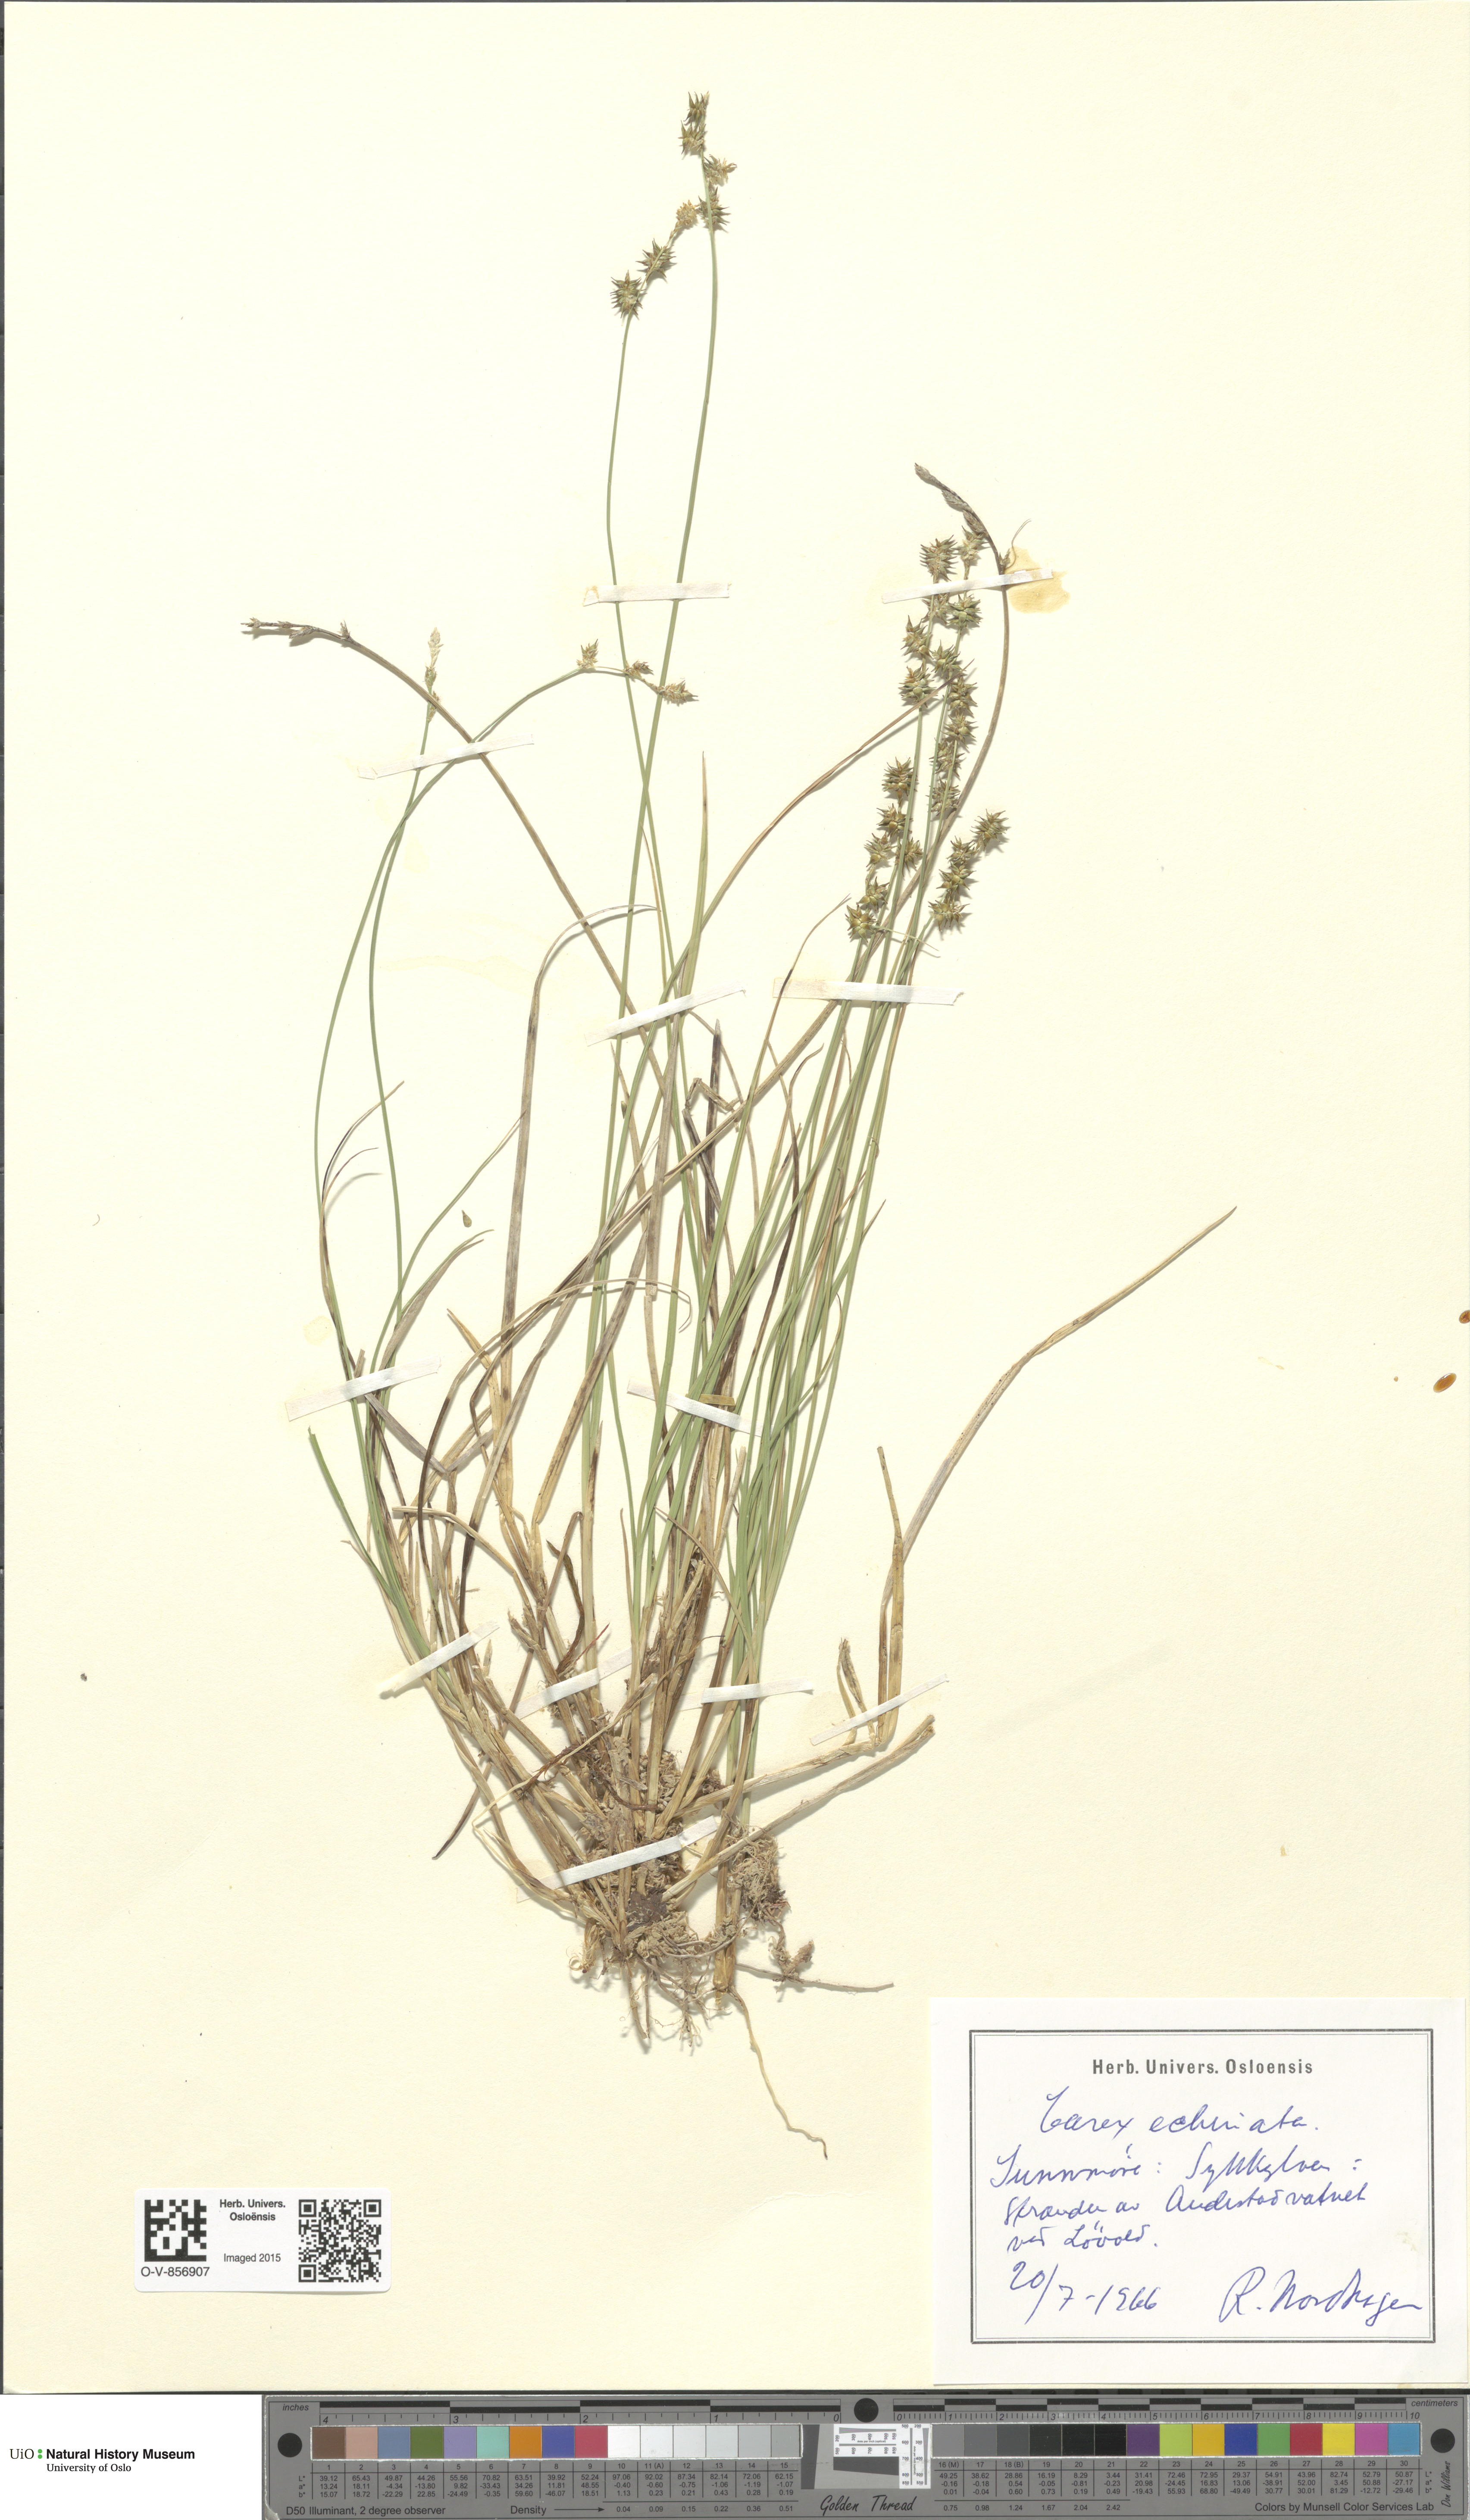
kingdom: Plantae
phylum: Tracheophyta
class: Liliopsida
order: Poales
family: Cyperaceae
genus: Carex
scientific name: Carex echinata
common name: Star sedge
